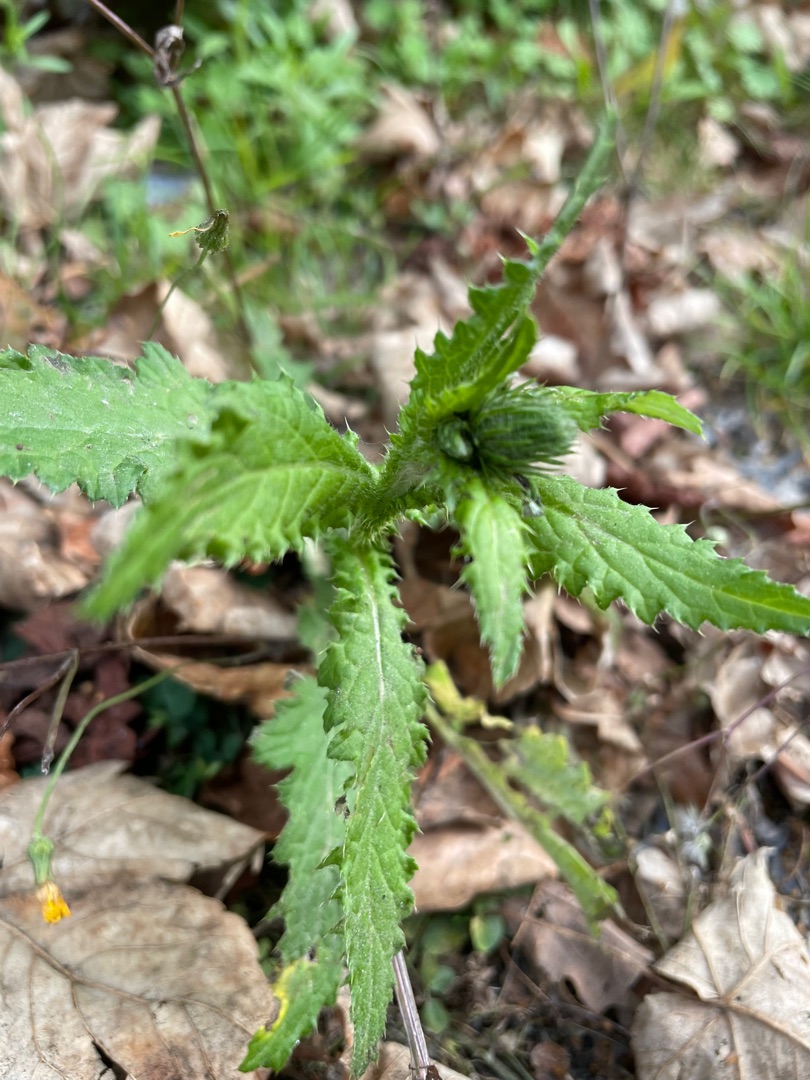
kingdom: Plantae
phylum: Tracheophyta
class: Magnoliopsida
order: Asterales
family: Asteraceae
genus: Carduus
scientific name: Carduus crispus
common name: Kruset tidsel
